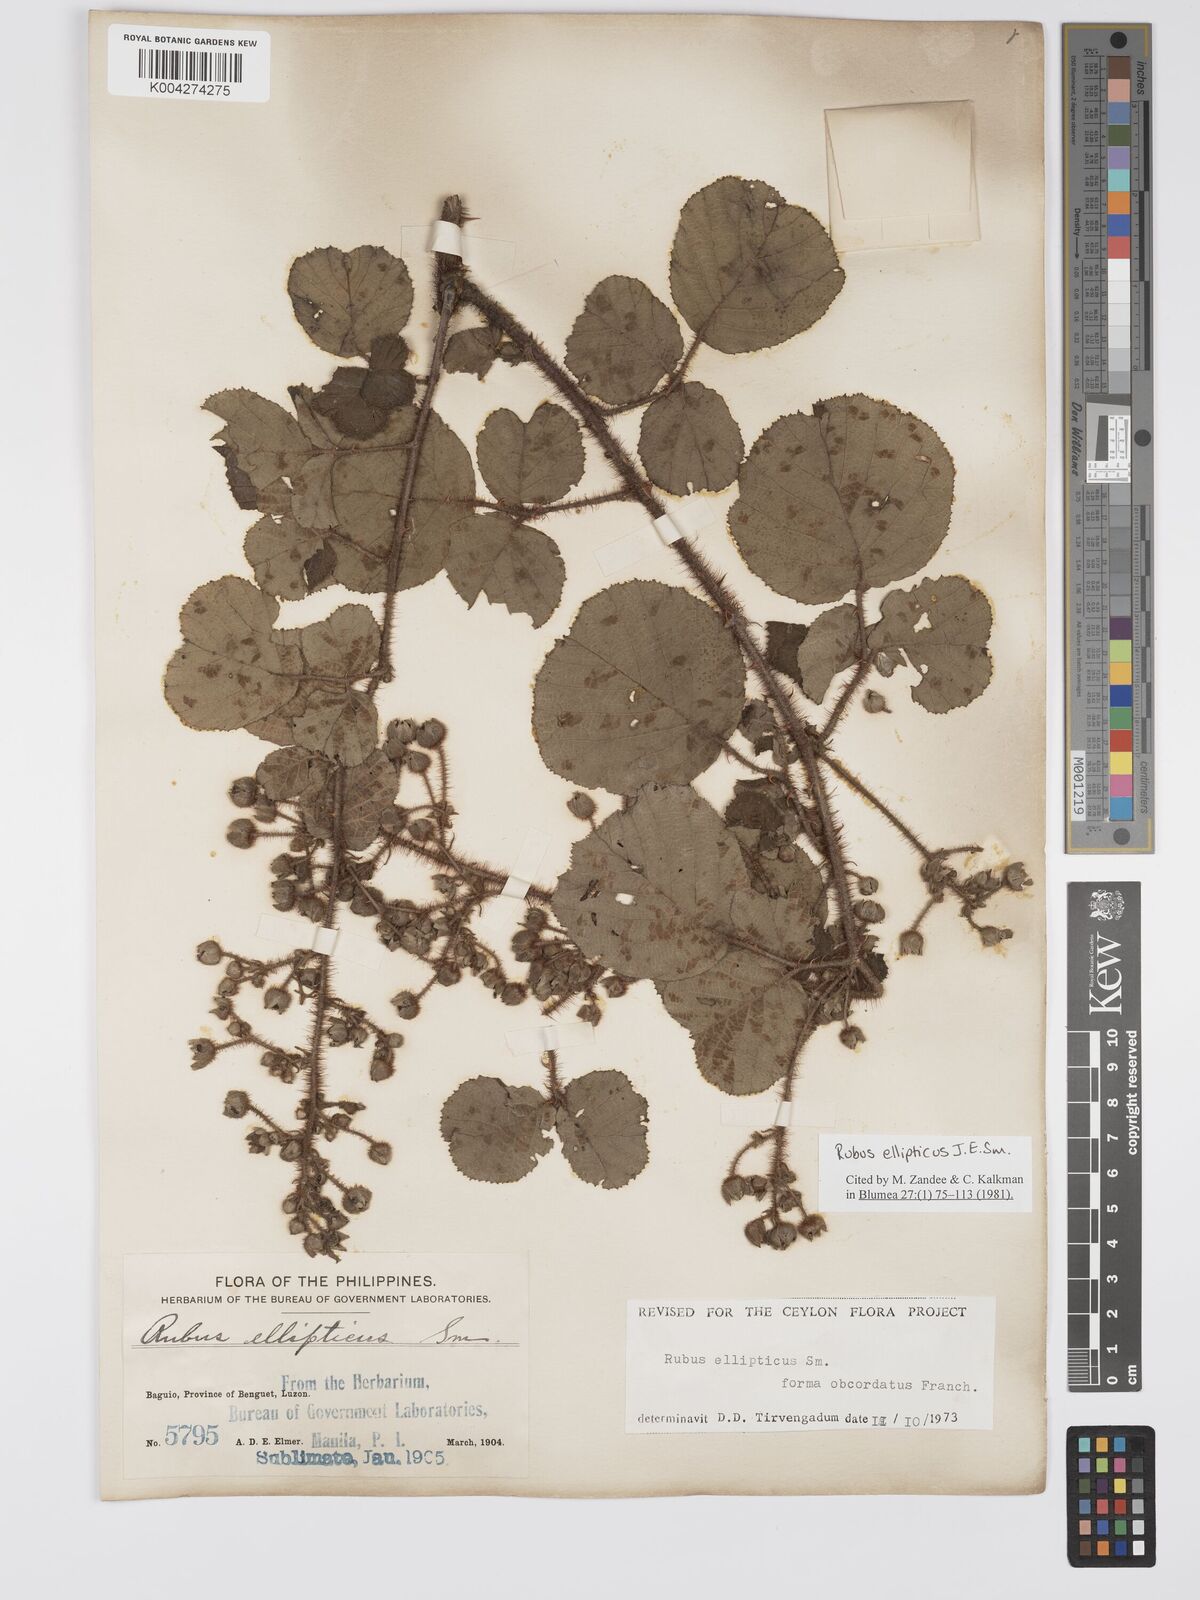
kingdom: Plantae
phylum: Tracheophyta
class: Magnoliopsida
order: Rosales
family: Rosaceae
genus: Rubus
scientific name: Rubus ellipticus
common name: Cheeseberry
